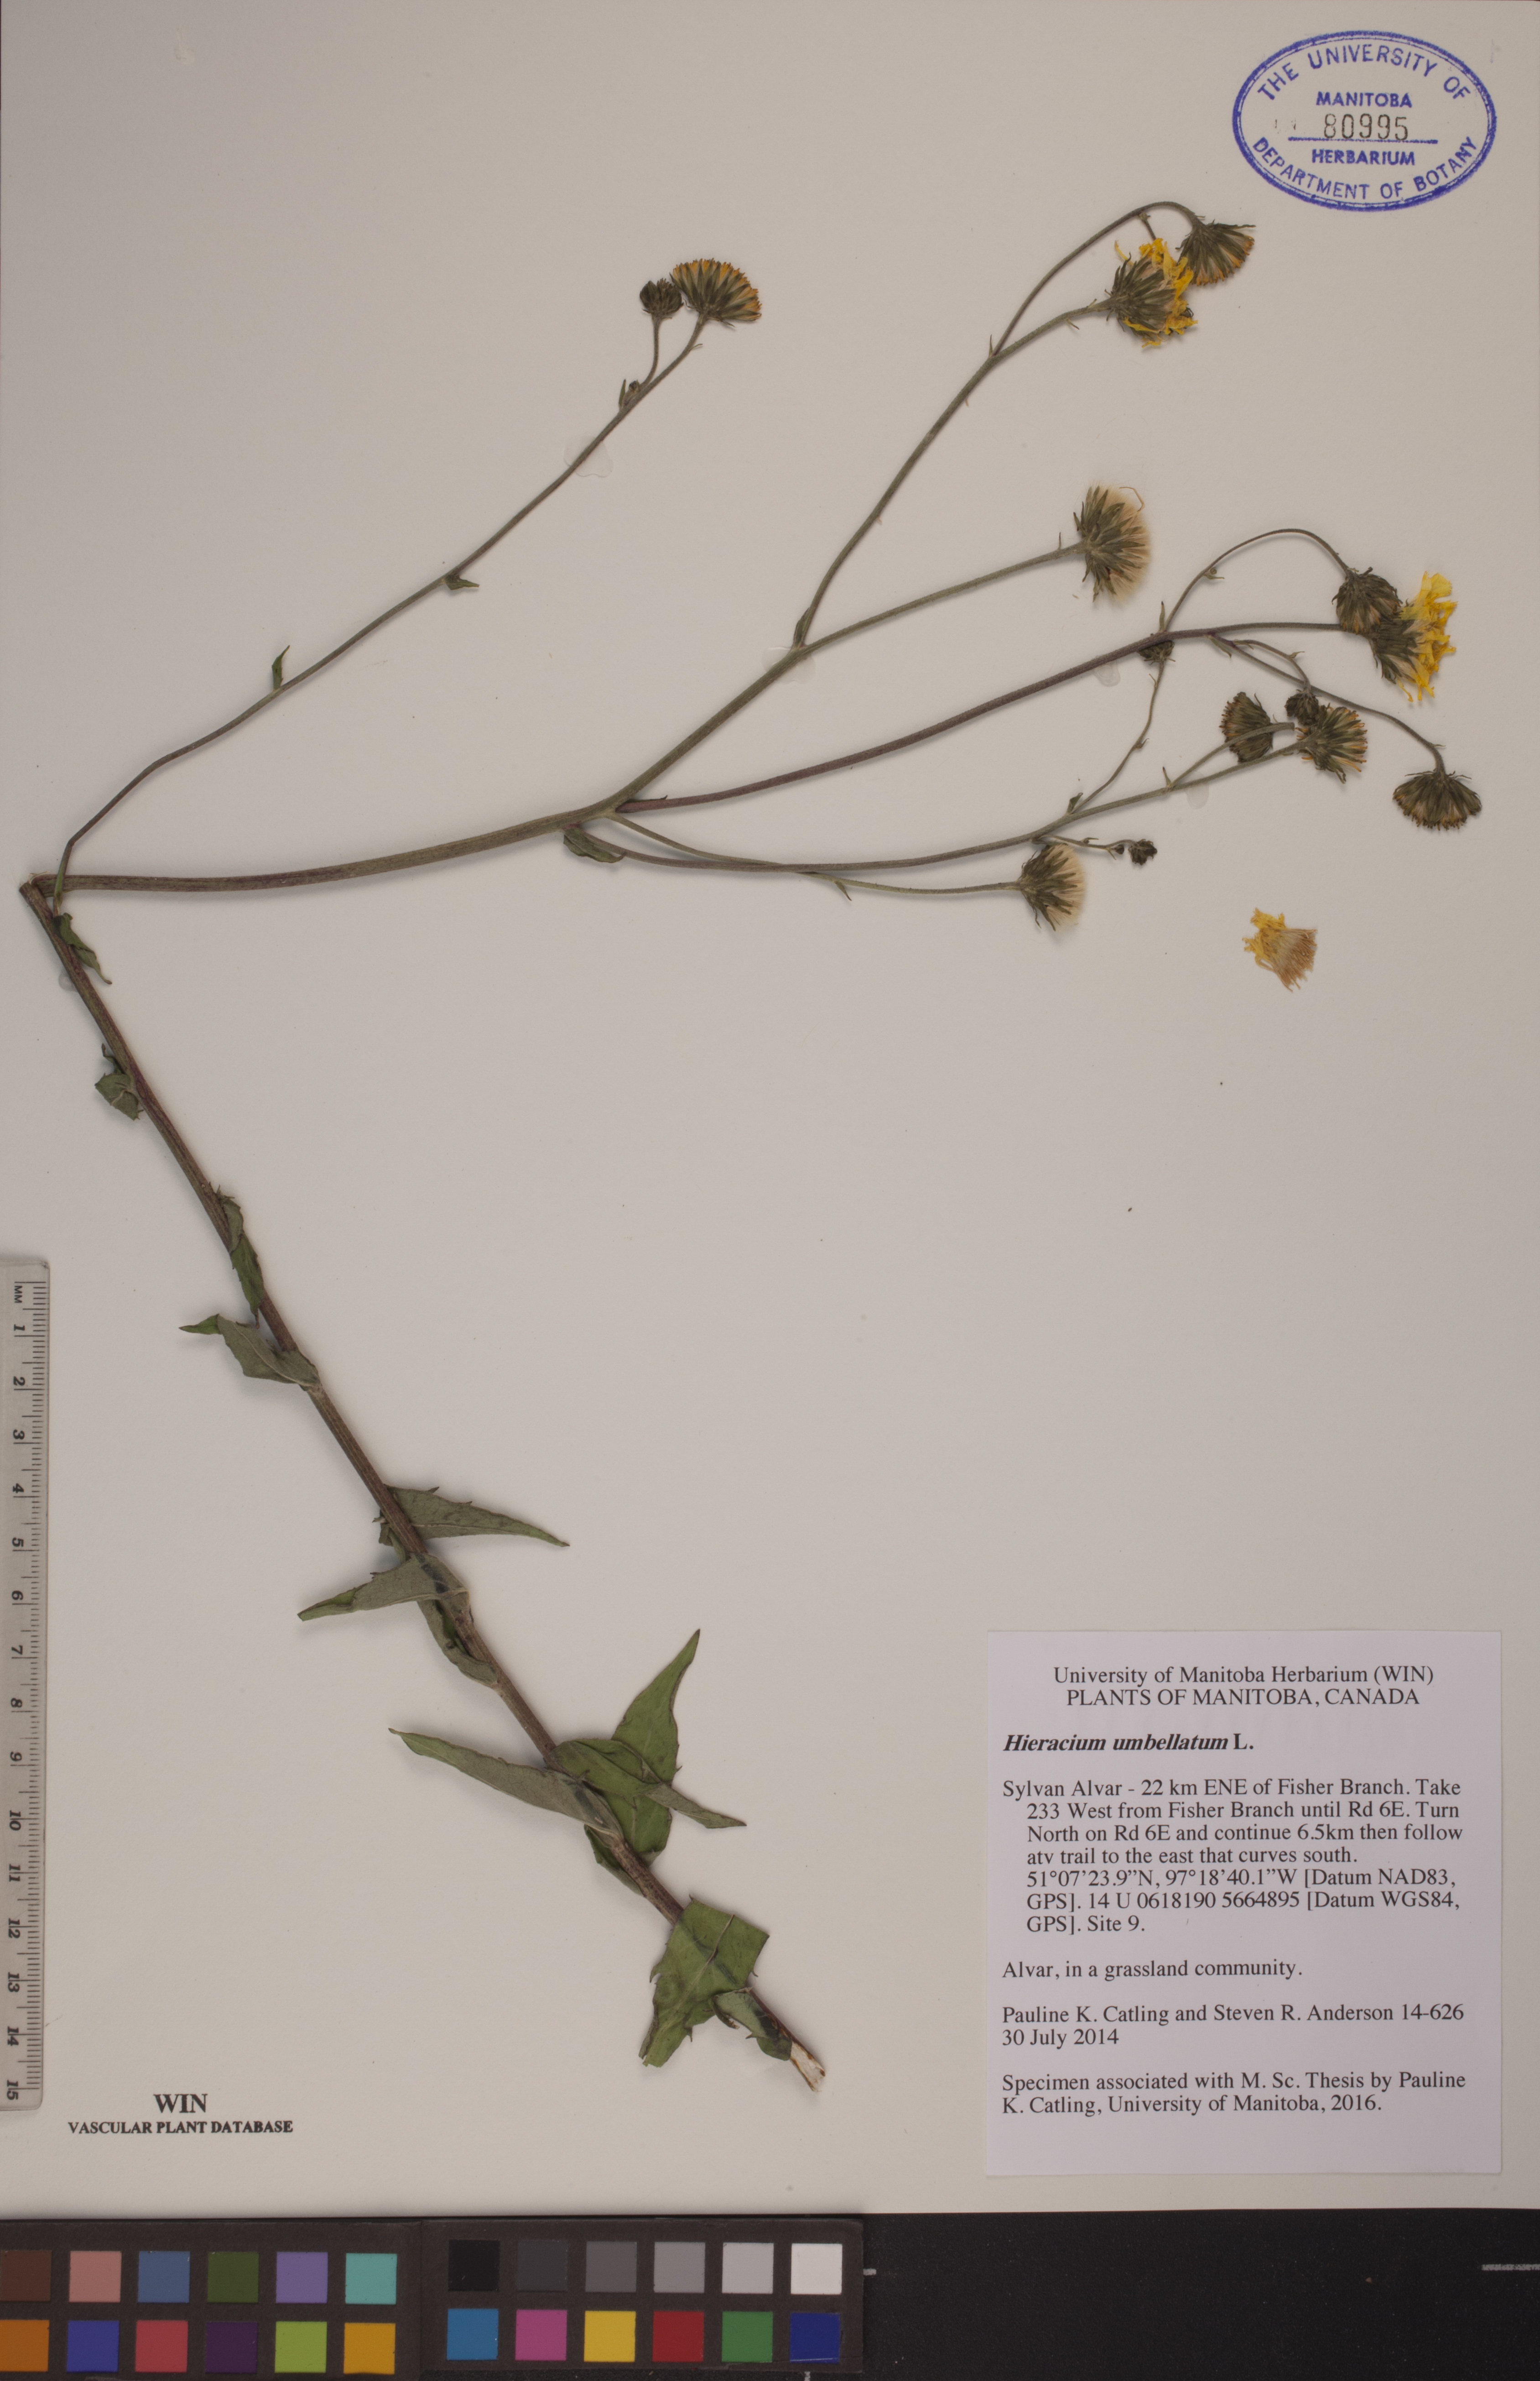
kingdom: Plantae
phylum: Tracheophyta
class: Magnoliopsida
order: Asterales
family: Asteraceae
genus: Hieracium
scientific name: Hieracium umbellatum
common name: Northern hawkweed
